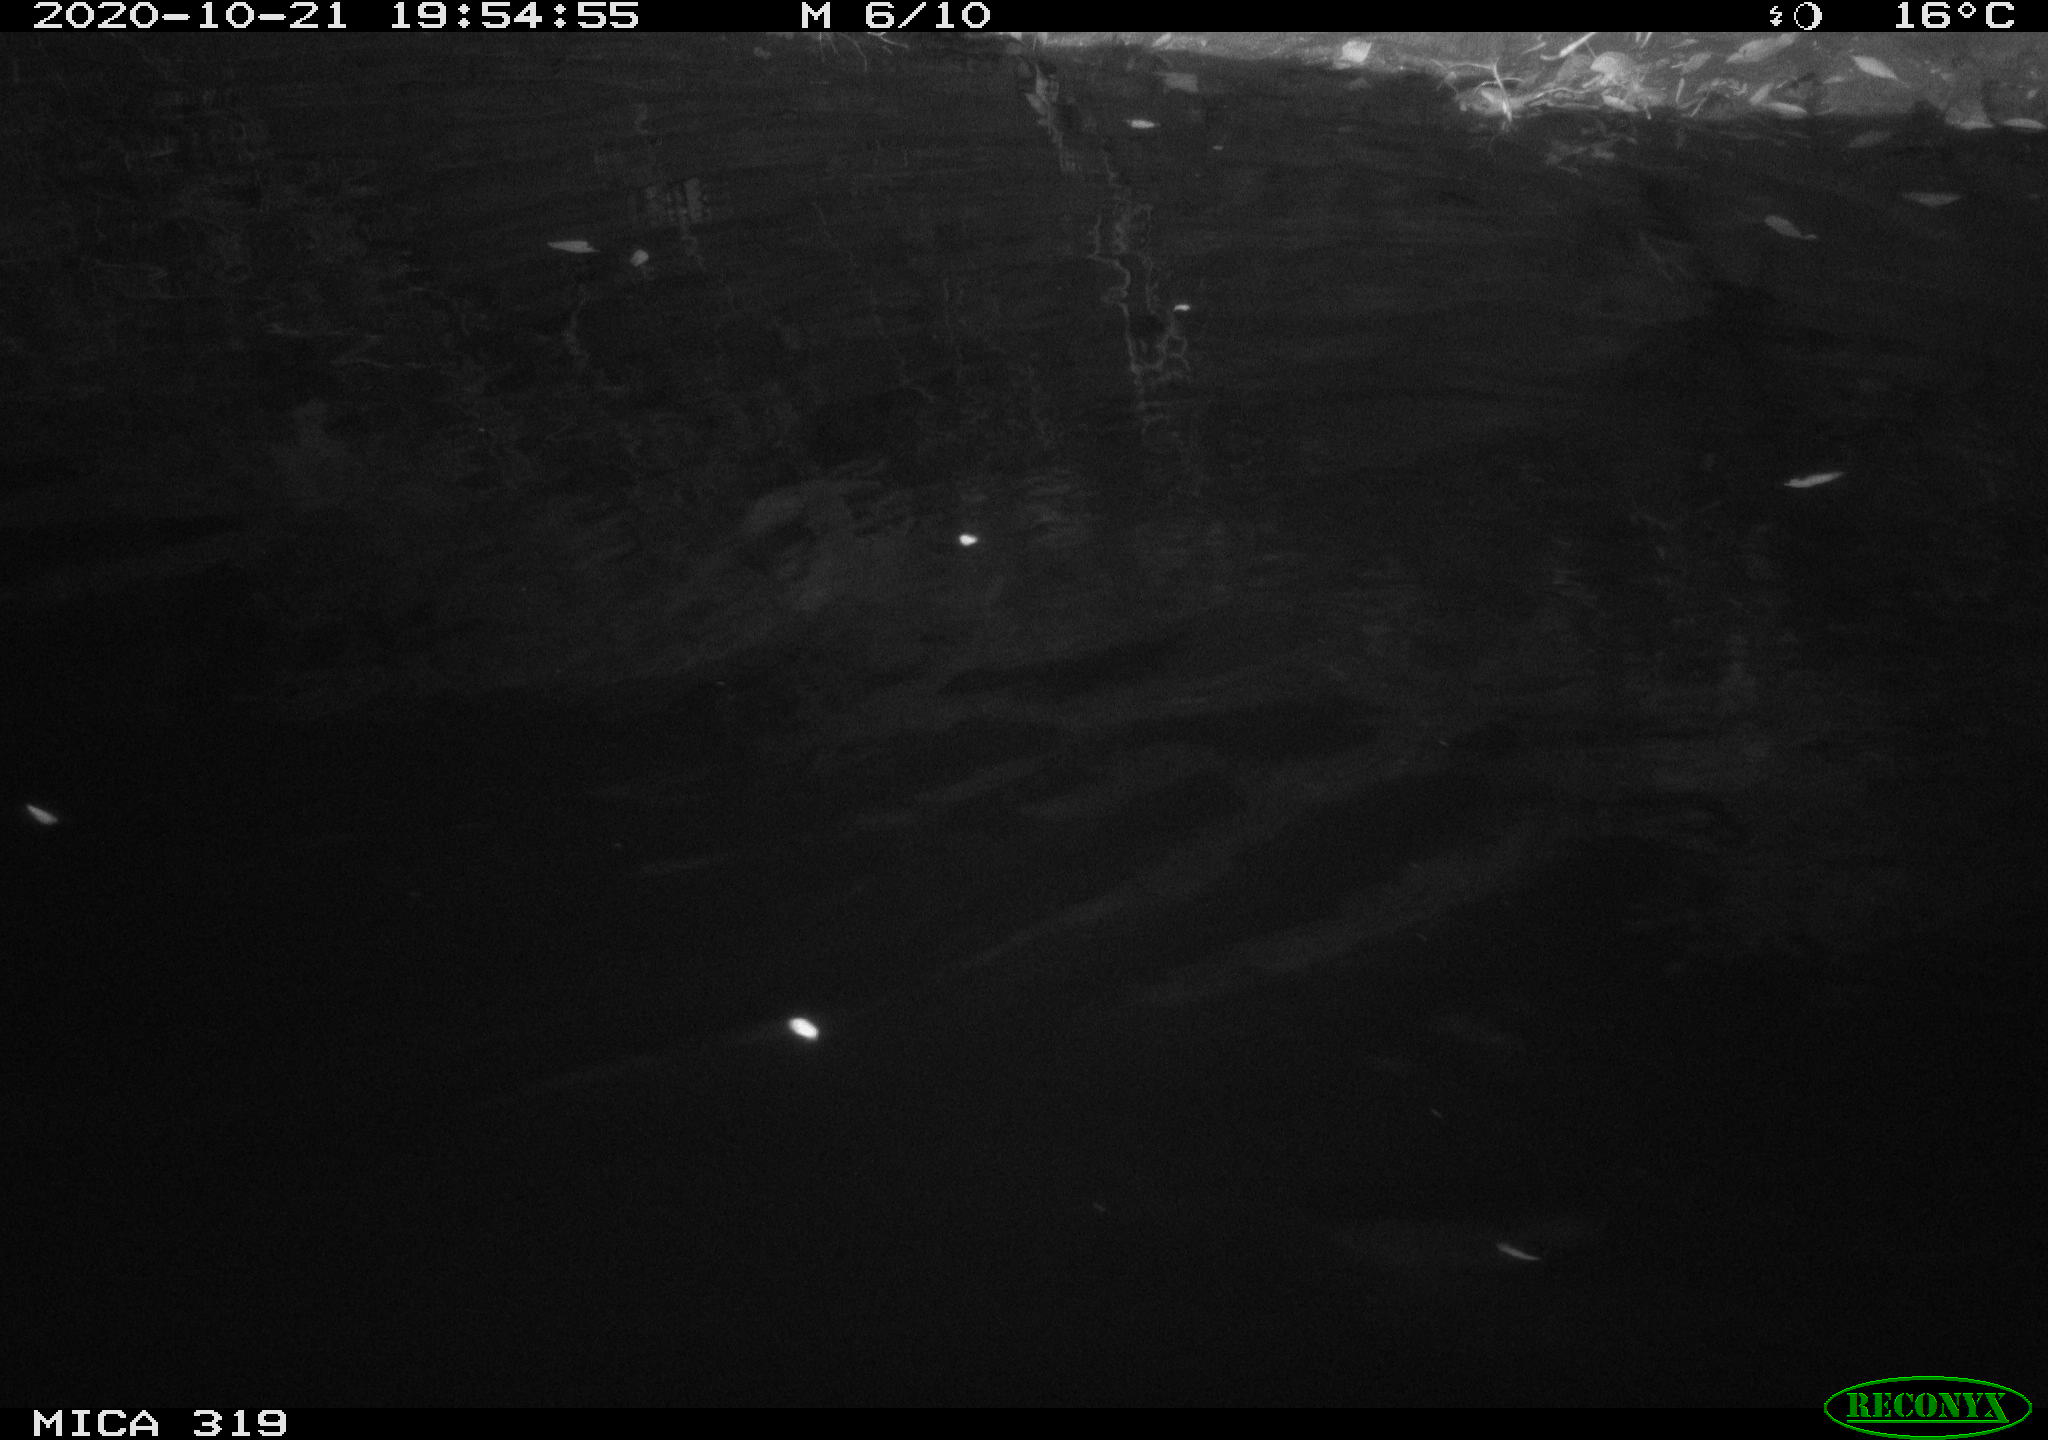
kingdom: Animalia
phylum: Chordata
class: Aves
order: Anseriformes
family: Anatidae
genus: Anas
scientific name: Anas platyrhynchos
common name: Mallard
